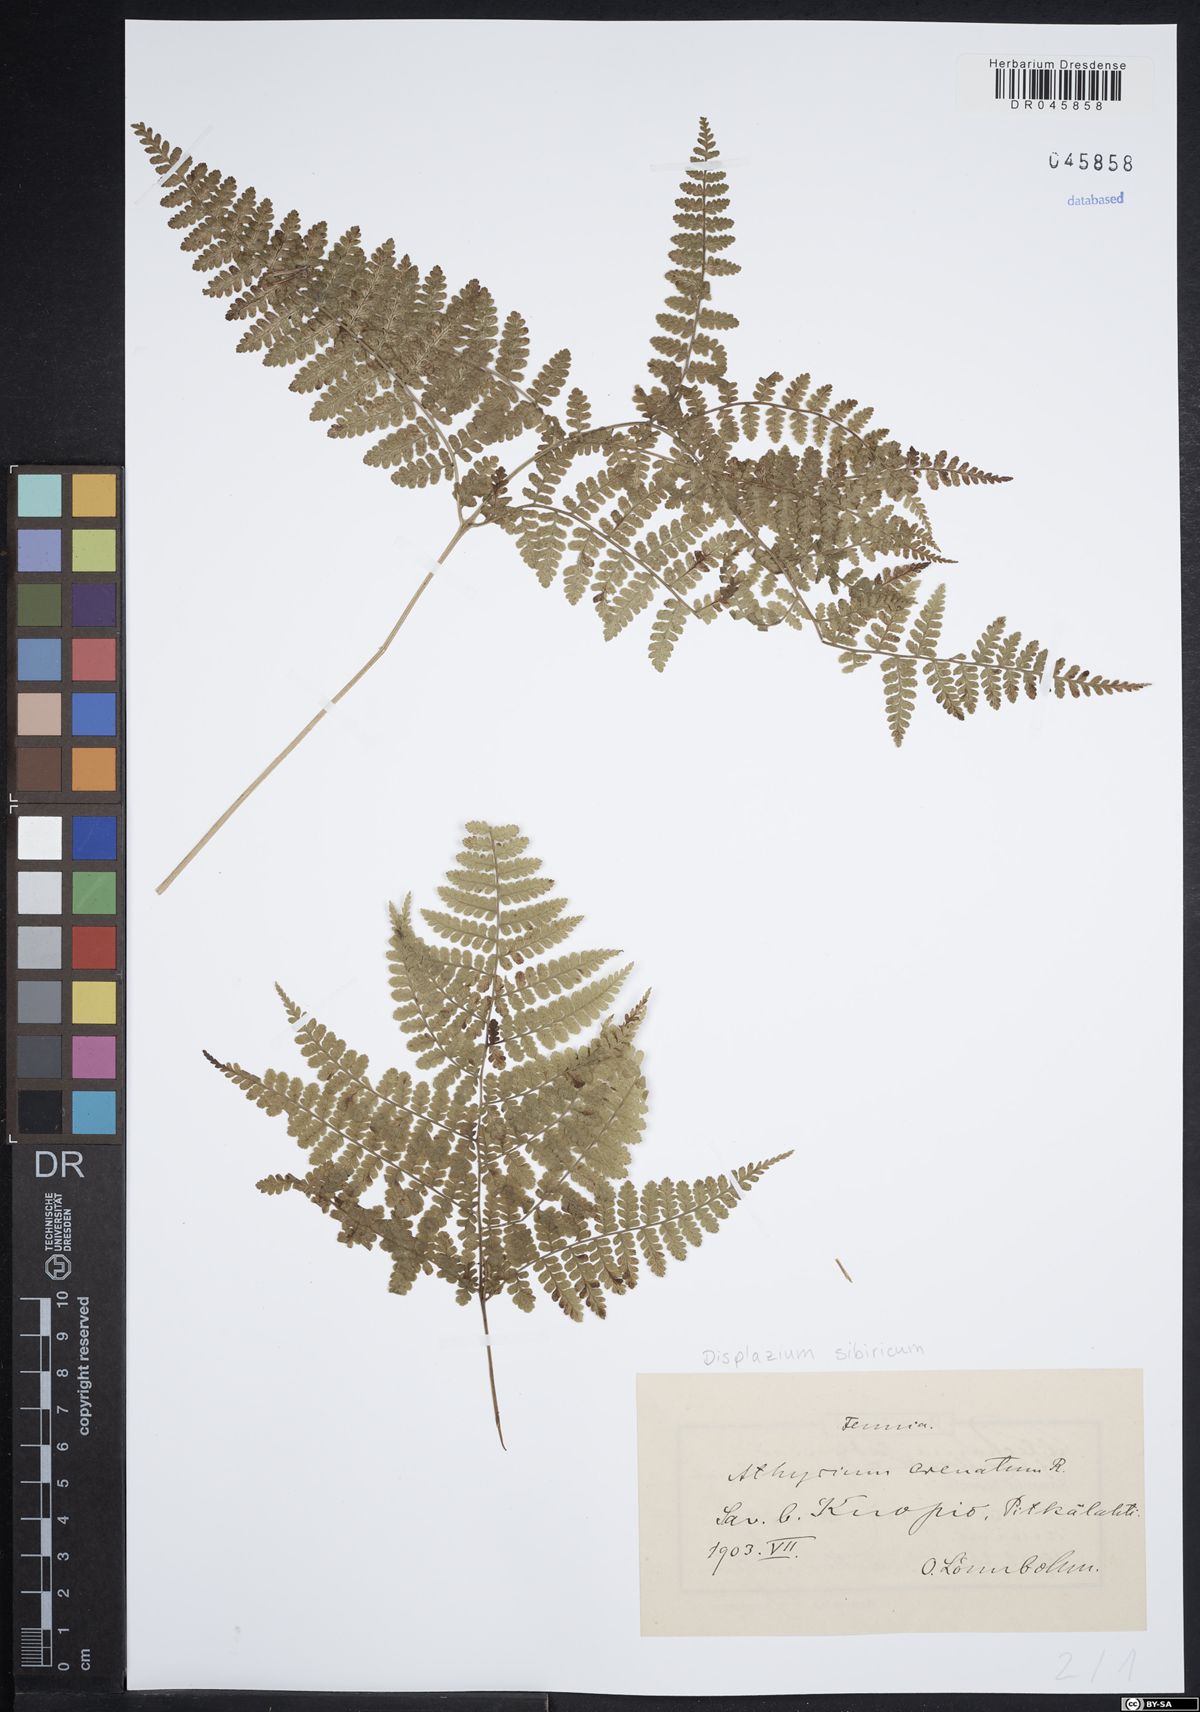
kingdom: Plantae
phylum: Tracheophyta
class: Polypodiopsida
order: Polypodiales
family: Athyriaceae
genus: Diplazium
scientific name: Diplazium sibiricum
